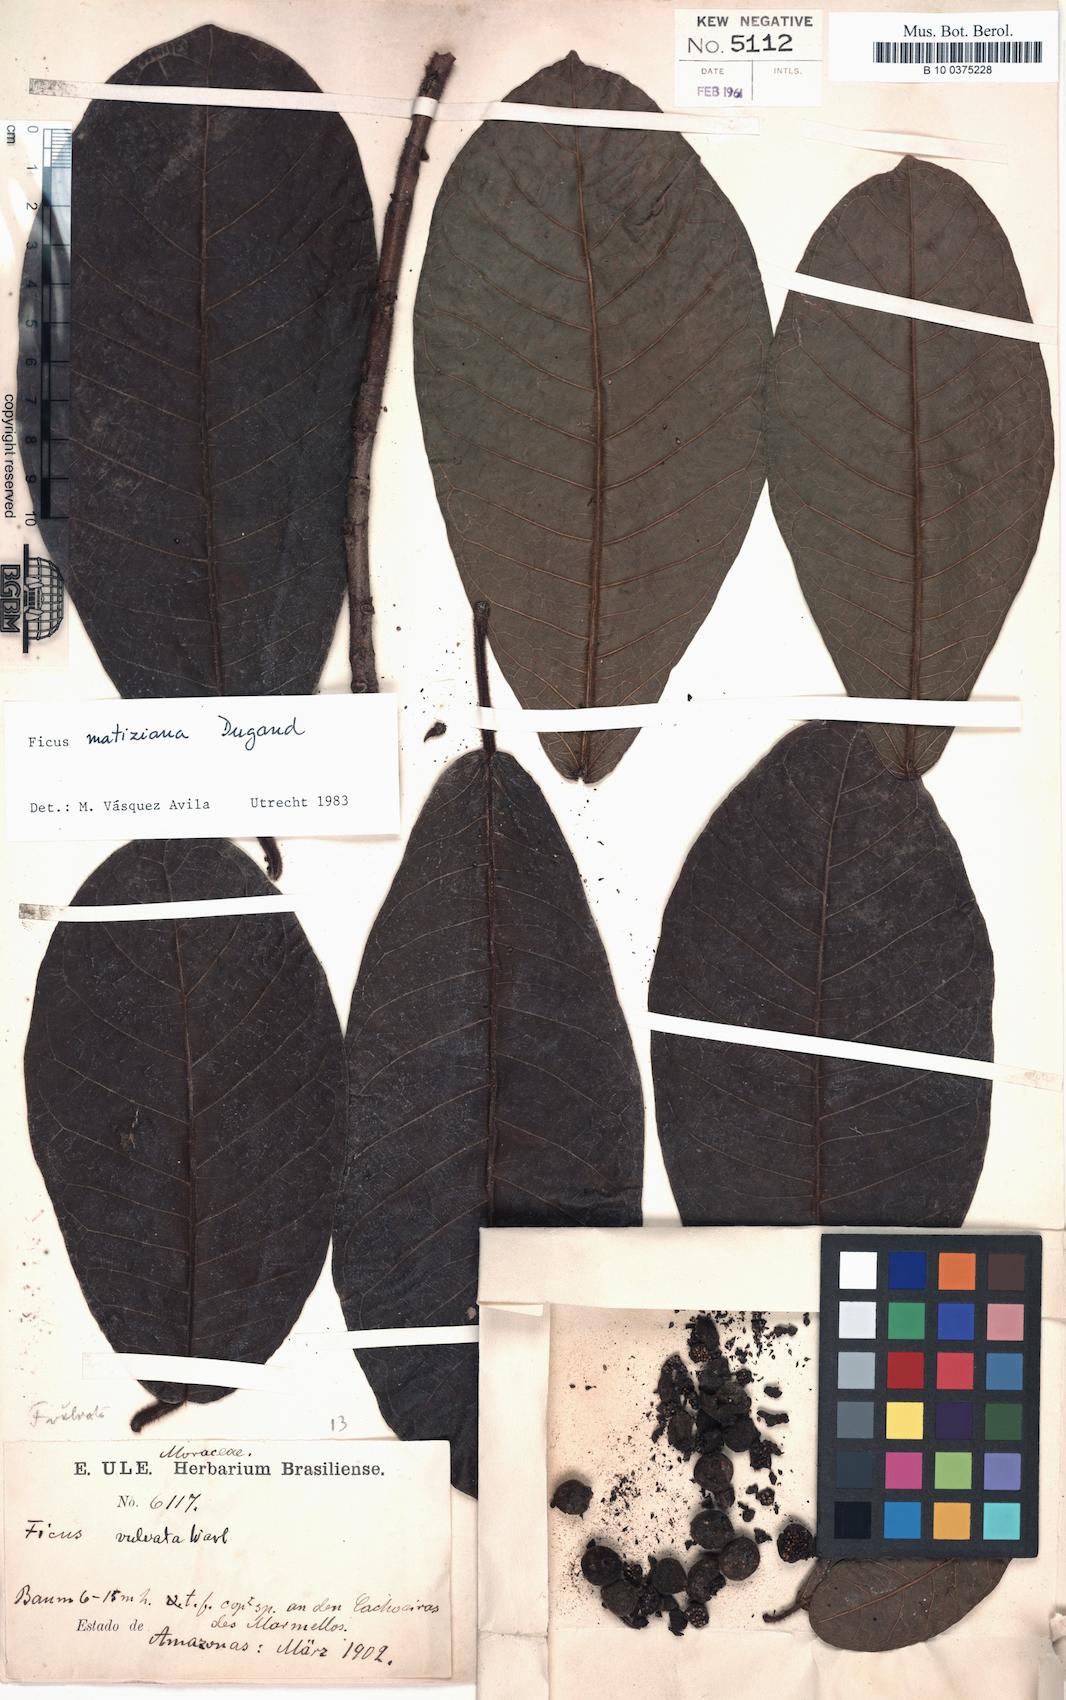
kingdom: Plantae
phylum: Tracheophyta
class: Magnoliopsida
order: Rosales
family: Moraceae
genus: Ficus
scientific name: Ficus matiziana
